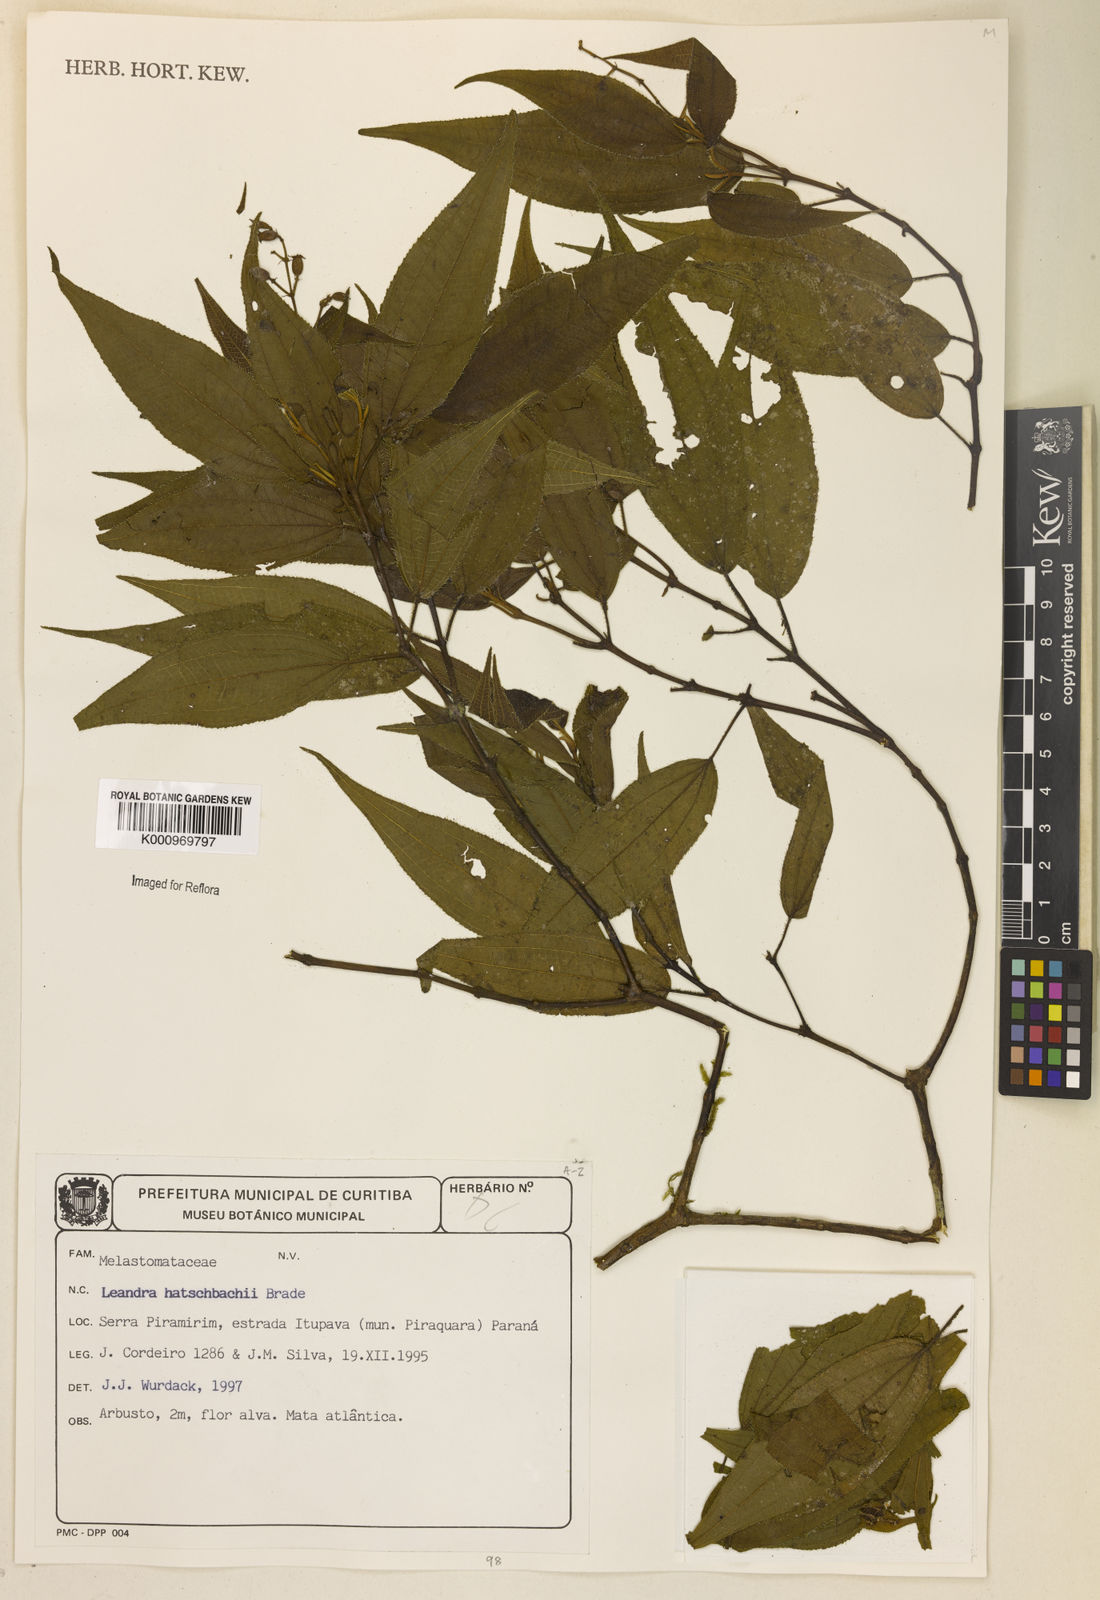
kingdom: Plantae
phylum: Tracheophyta
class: Magnoliopsida
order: Myrtales
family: Melastomataceae
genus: Miconia
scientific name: Miconia hatschbachii
